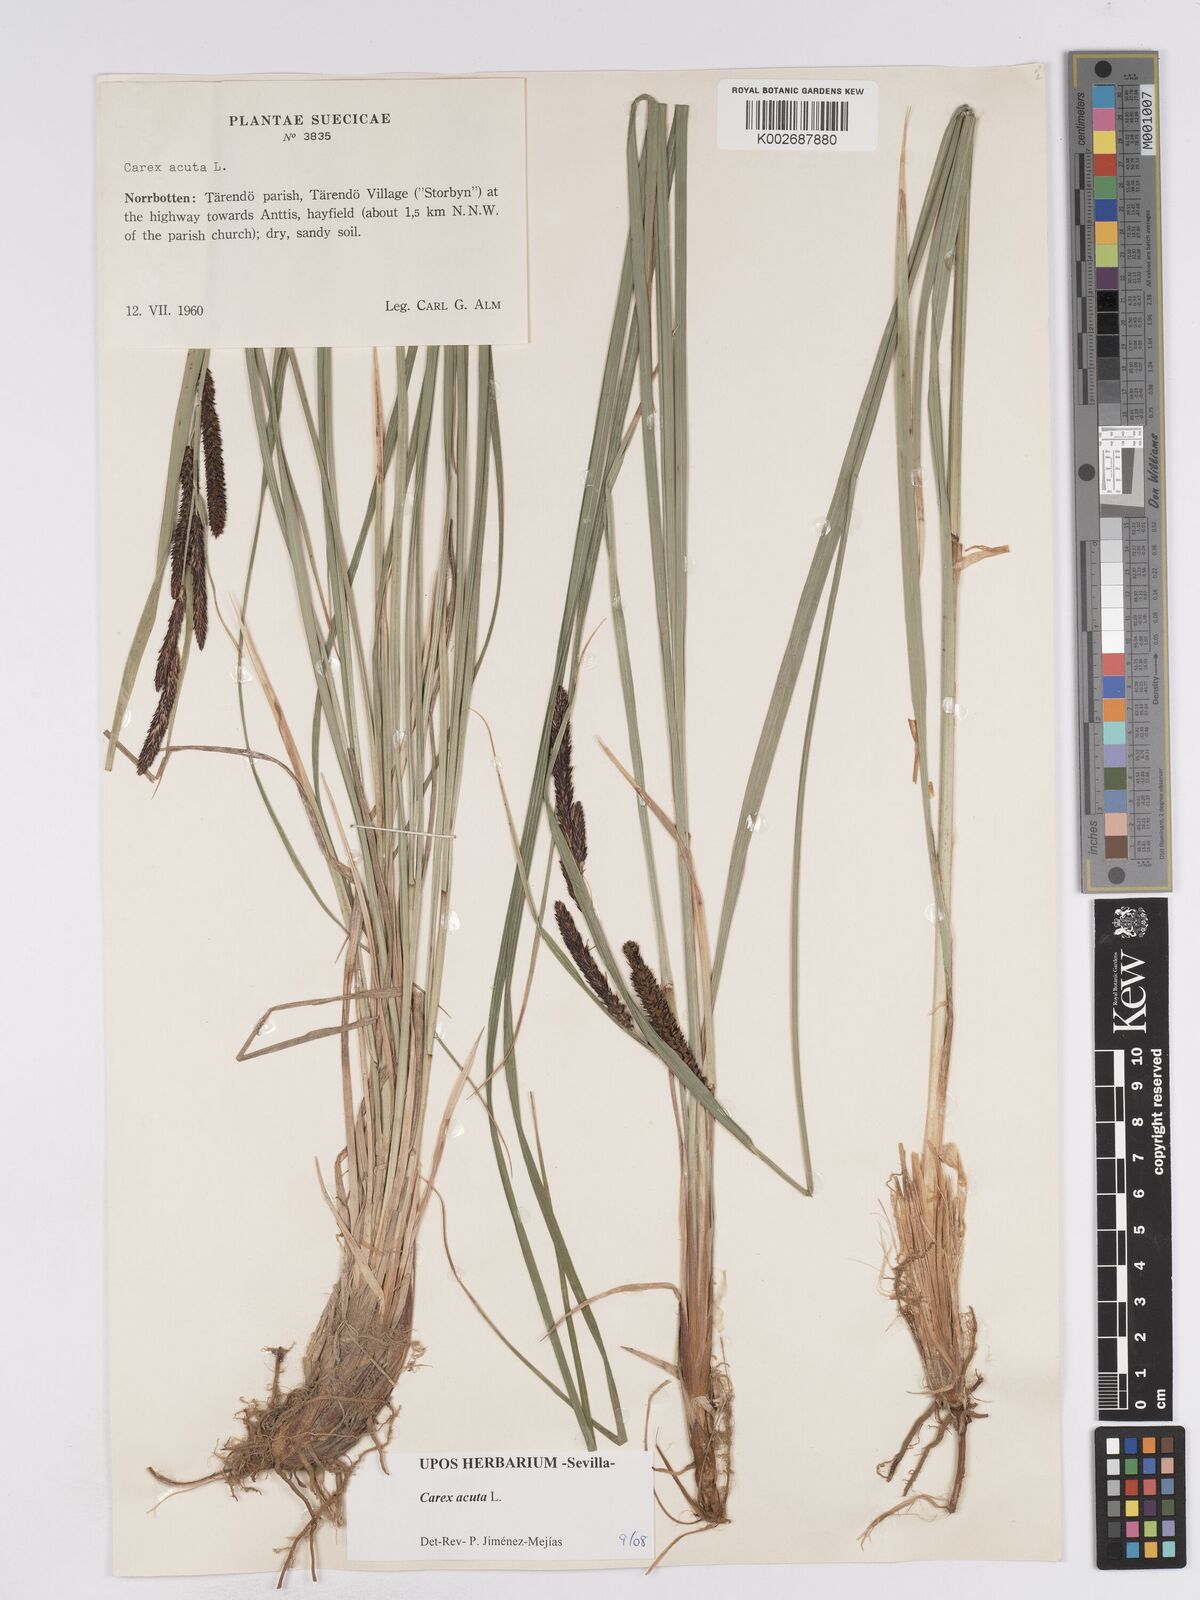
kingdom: Plantae
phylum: Tracheophyta
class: Liliopsida
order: Poales
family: Cyperaceae
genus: Carex
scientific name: Carex acuta
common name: Slender tufted-sedge
